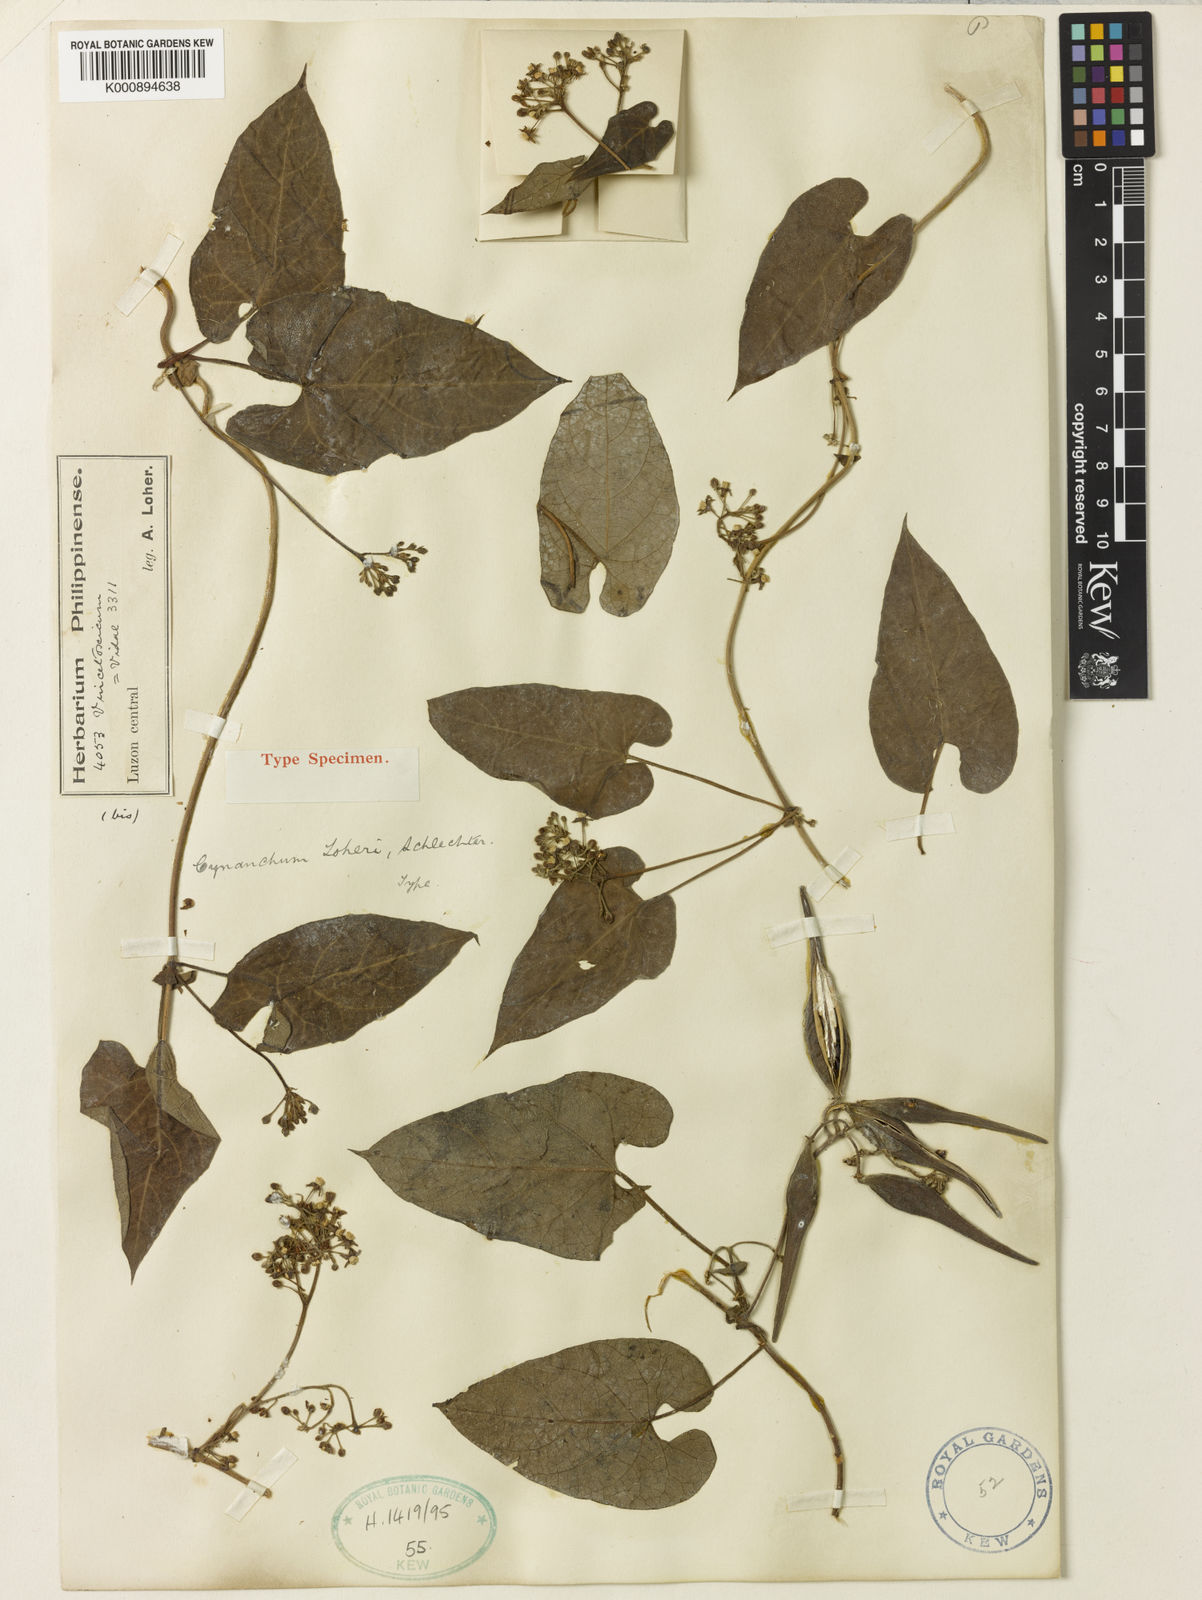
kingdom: Plantae
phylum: Tracheophyta
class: Magnoliopsida
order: Gentianales
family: Apocynaceae
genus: Cynanchum
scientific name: Cynanchum loheri
